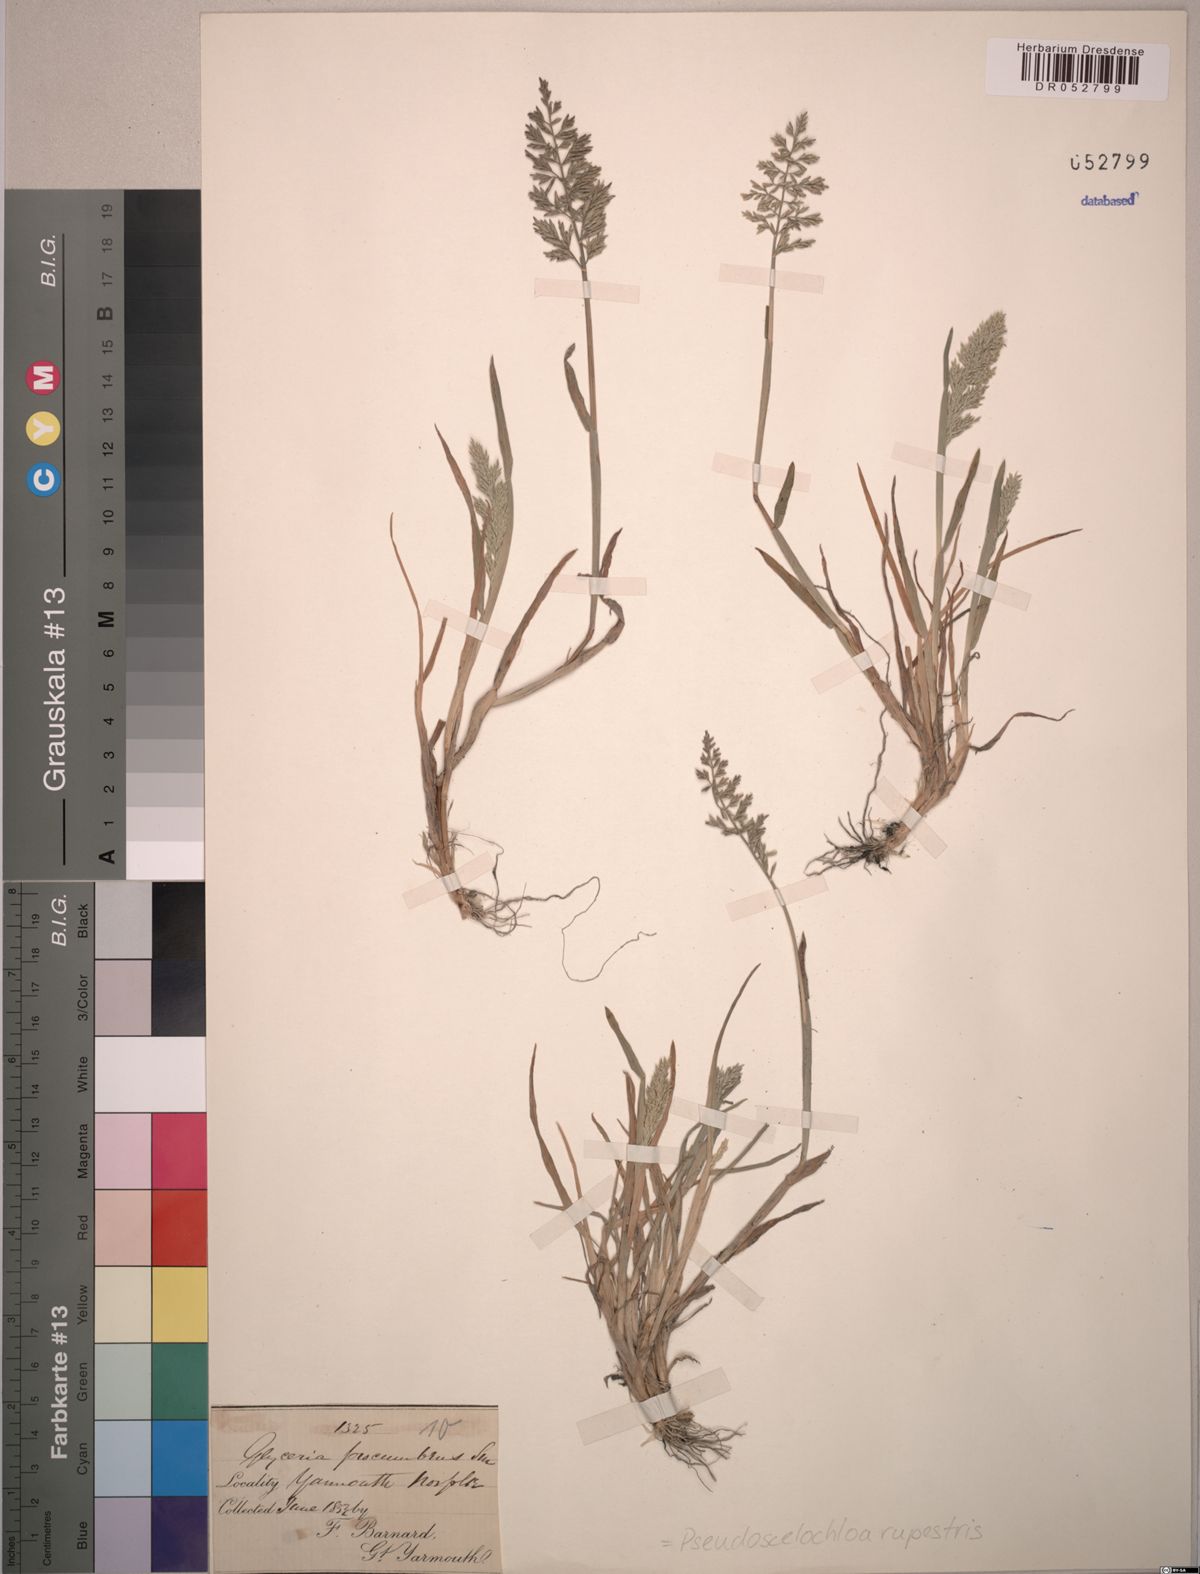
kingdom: Plantae
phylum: Tracheophyta
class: Liliopsida
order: Poales
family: Poaceae
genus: Puccinellia
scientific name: Puccinellia rupestris
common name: Stiff saltmarsh-grass
